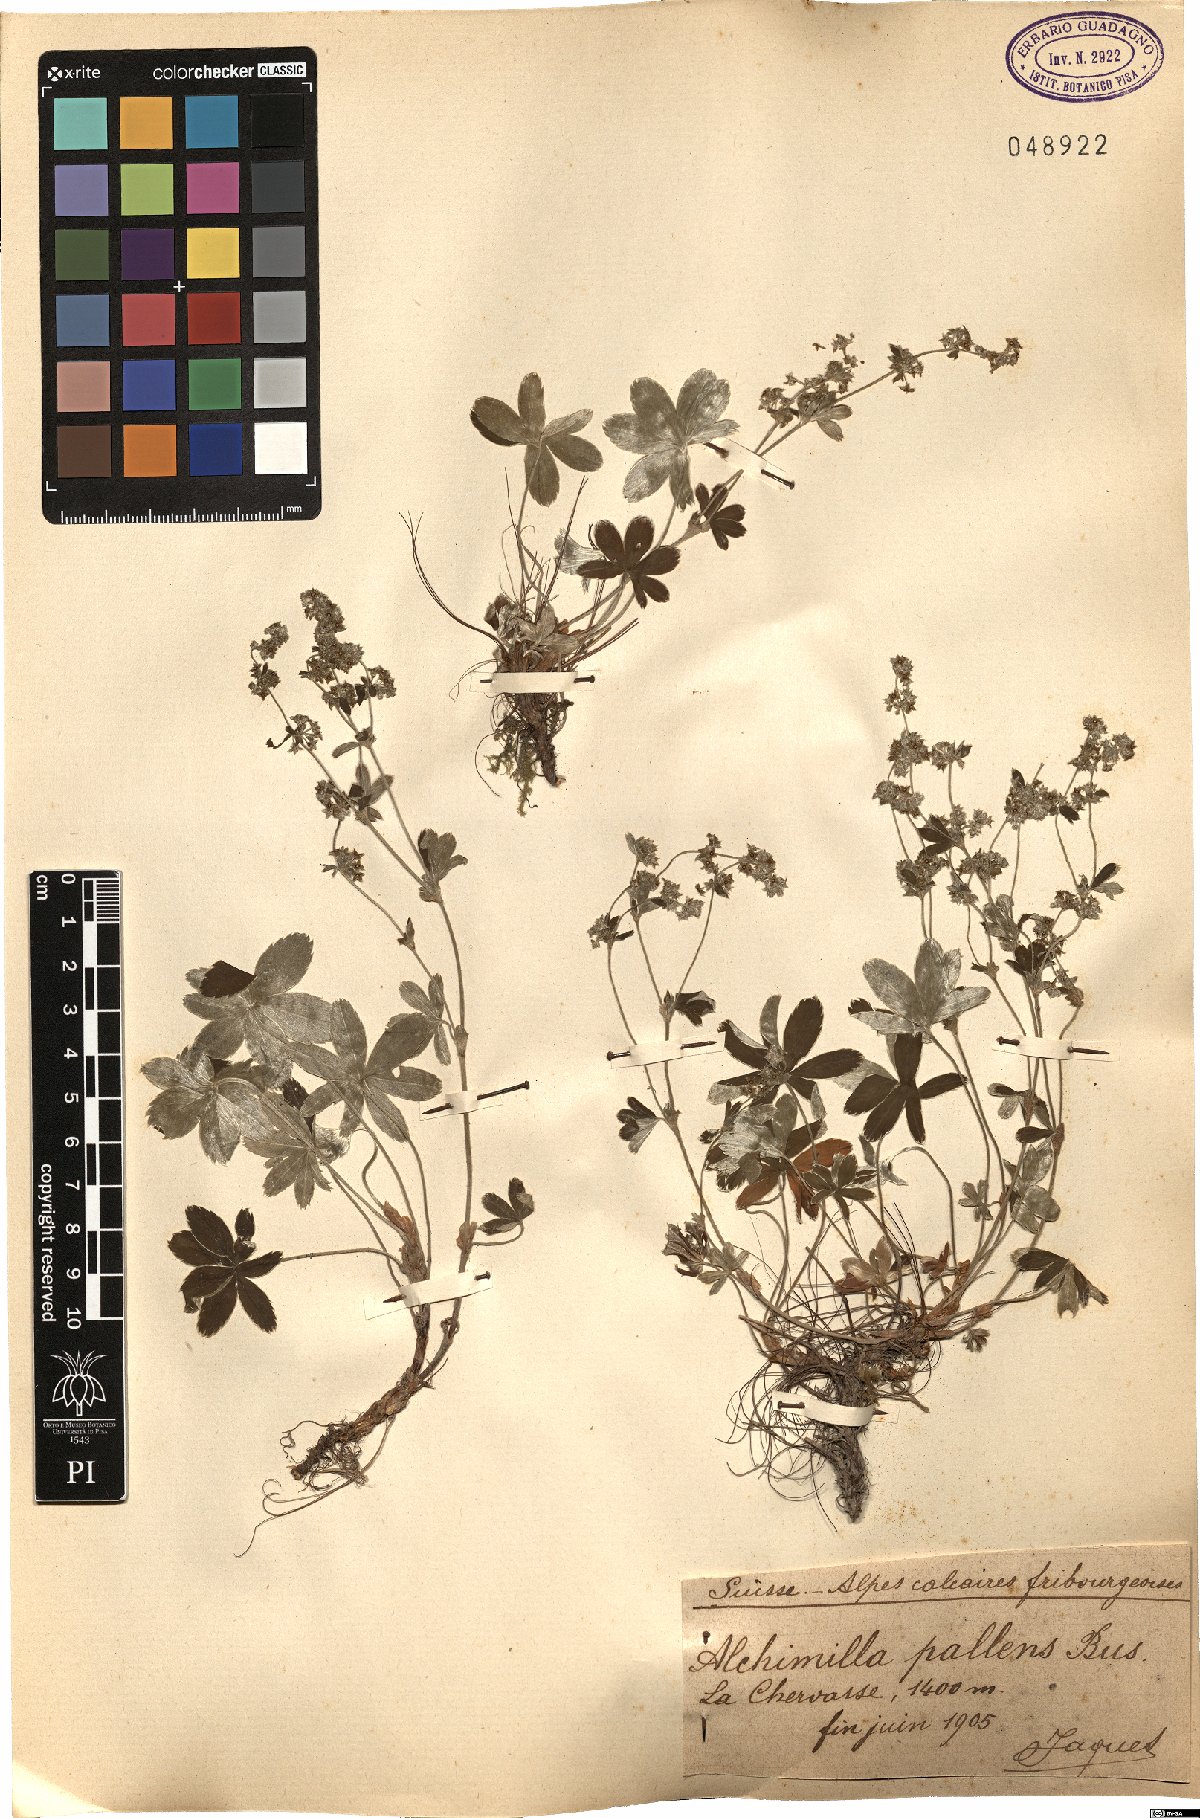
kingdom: Plantae
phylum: Tracheophyta
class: Magnoliopsida
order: Rosales
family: Rosaceae
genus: Alchemilla
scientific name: Alchemilla pallens
